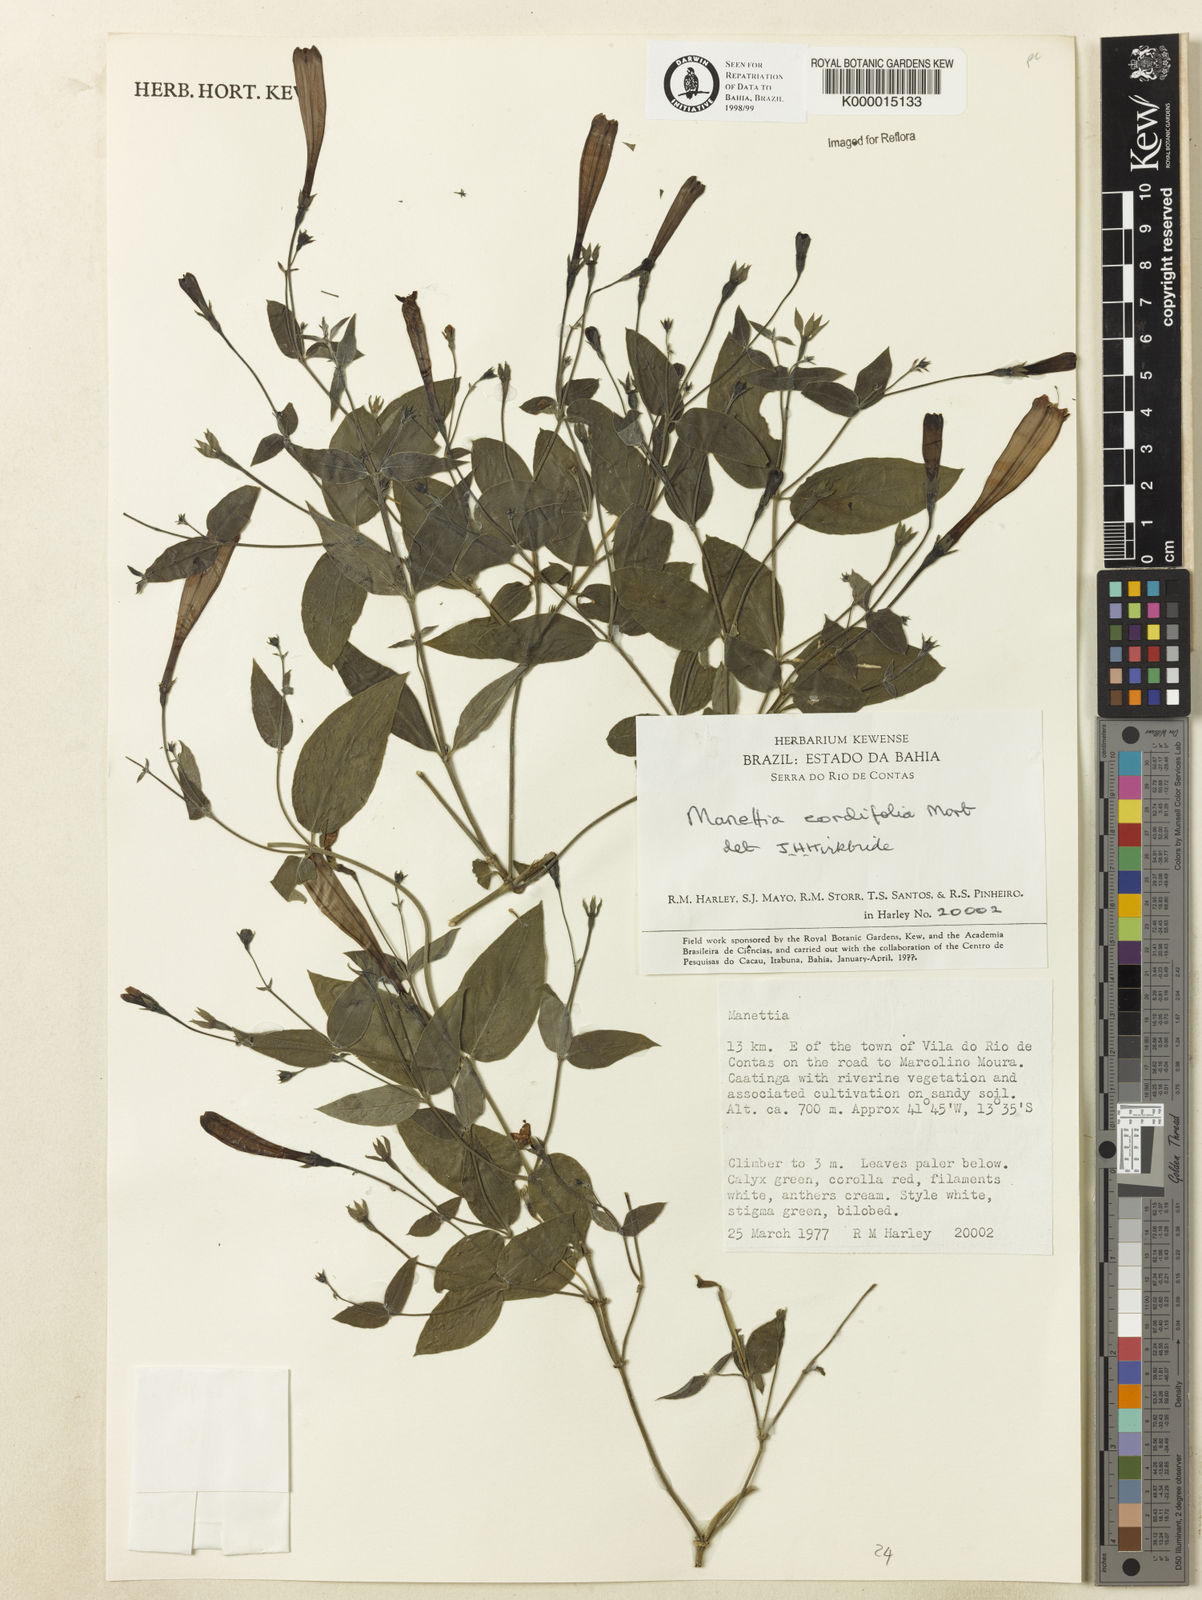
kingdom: Plantae
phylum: Tracheophyta
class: Magnoliopsida
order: Gentianales
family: Rubiaceae
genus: Manettia
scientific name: Manettia cordifolia
